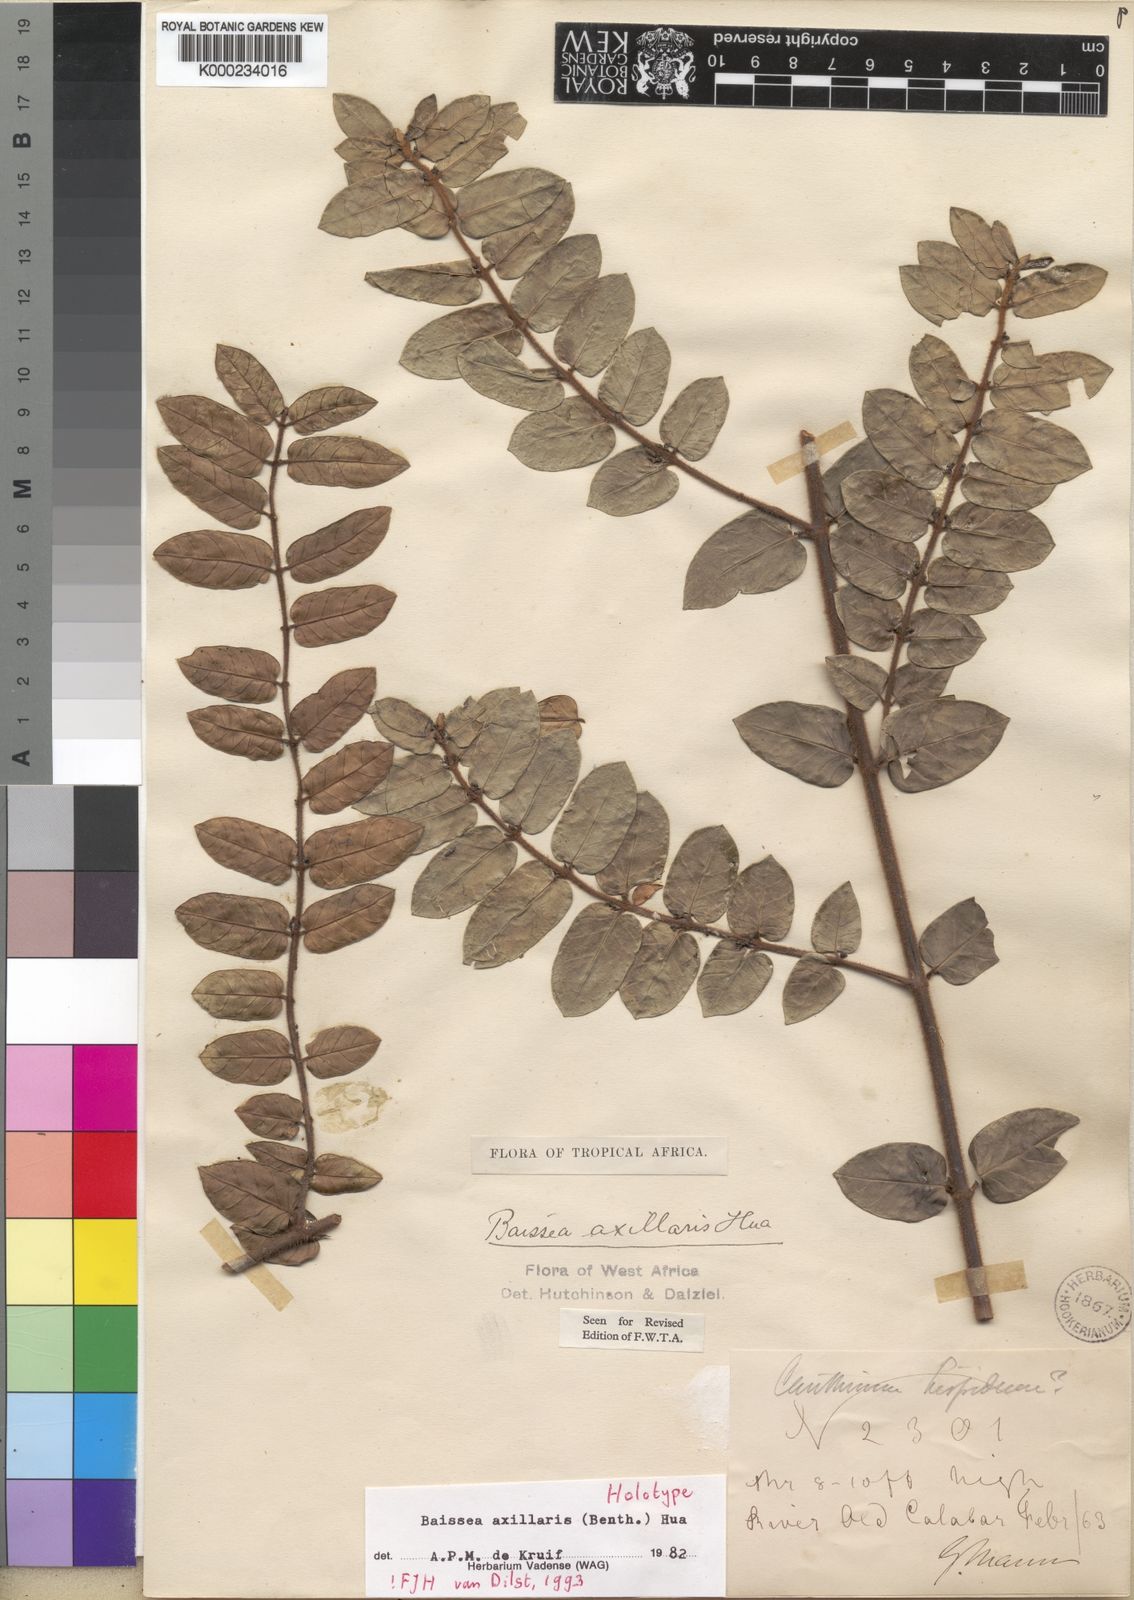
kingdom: Plantae
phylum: Tracheophyta
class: Magnoliopsida
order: Gentianales
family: Apocynaceae
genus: Baissea
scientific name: Baissea axillaris
